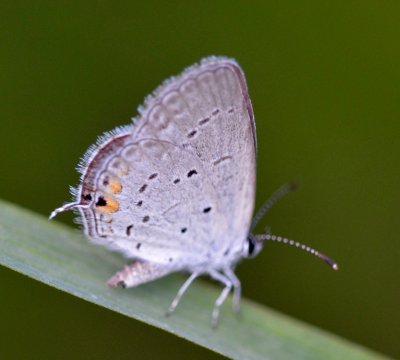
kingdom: Animalia
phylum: Arthropoda
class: Insecta
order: Lepidoptera
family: Lycaenidae
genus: Elkalyce
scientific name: Elkalyce comyntas
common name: Eastern Tailed-Blue
